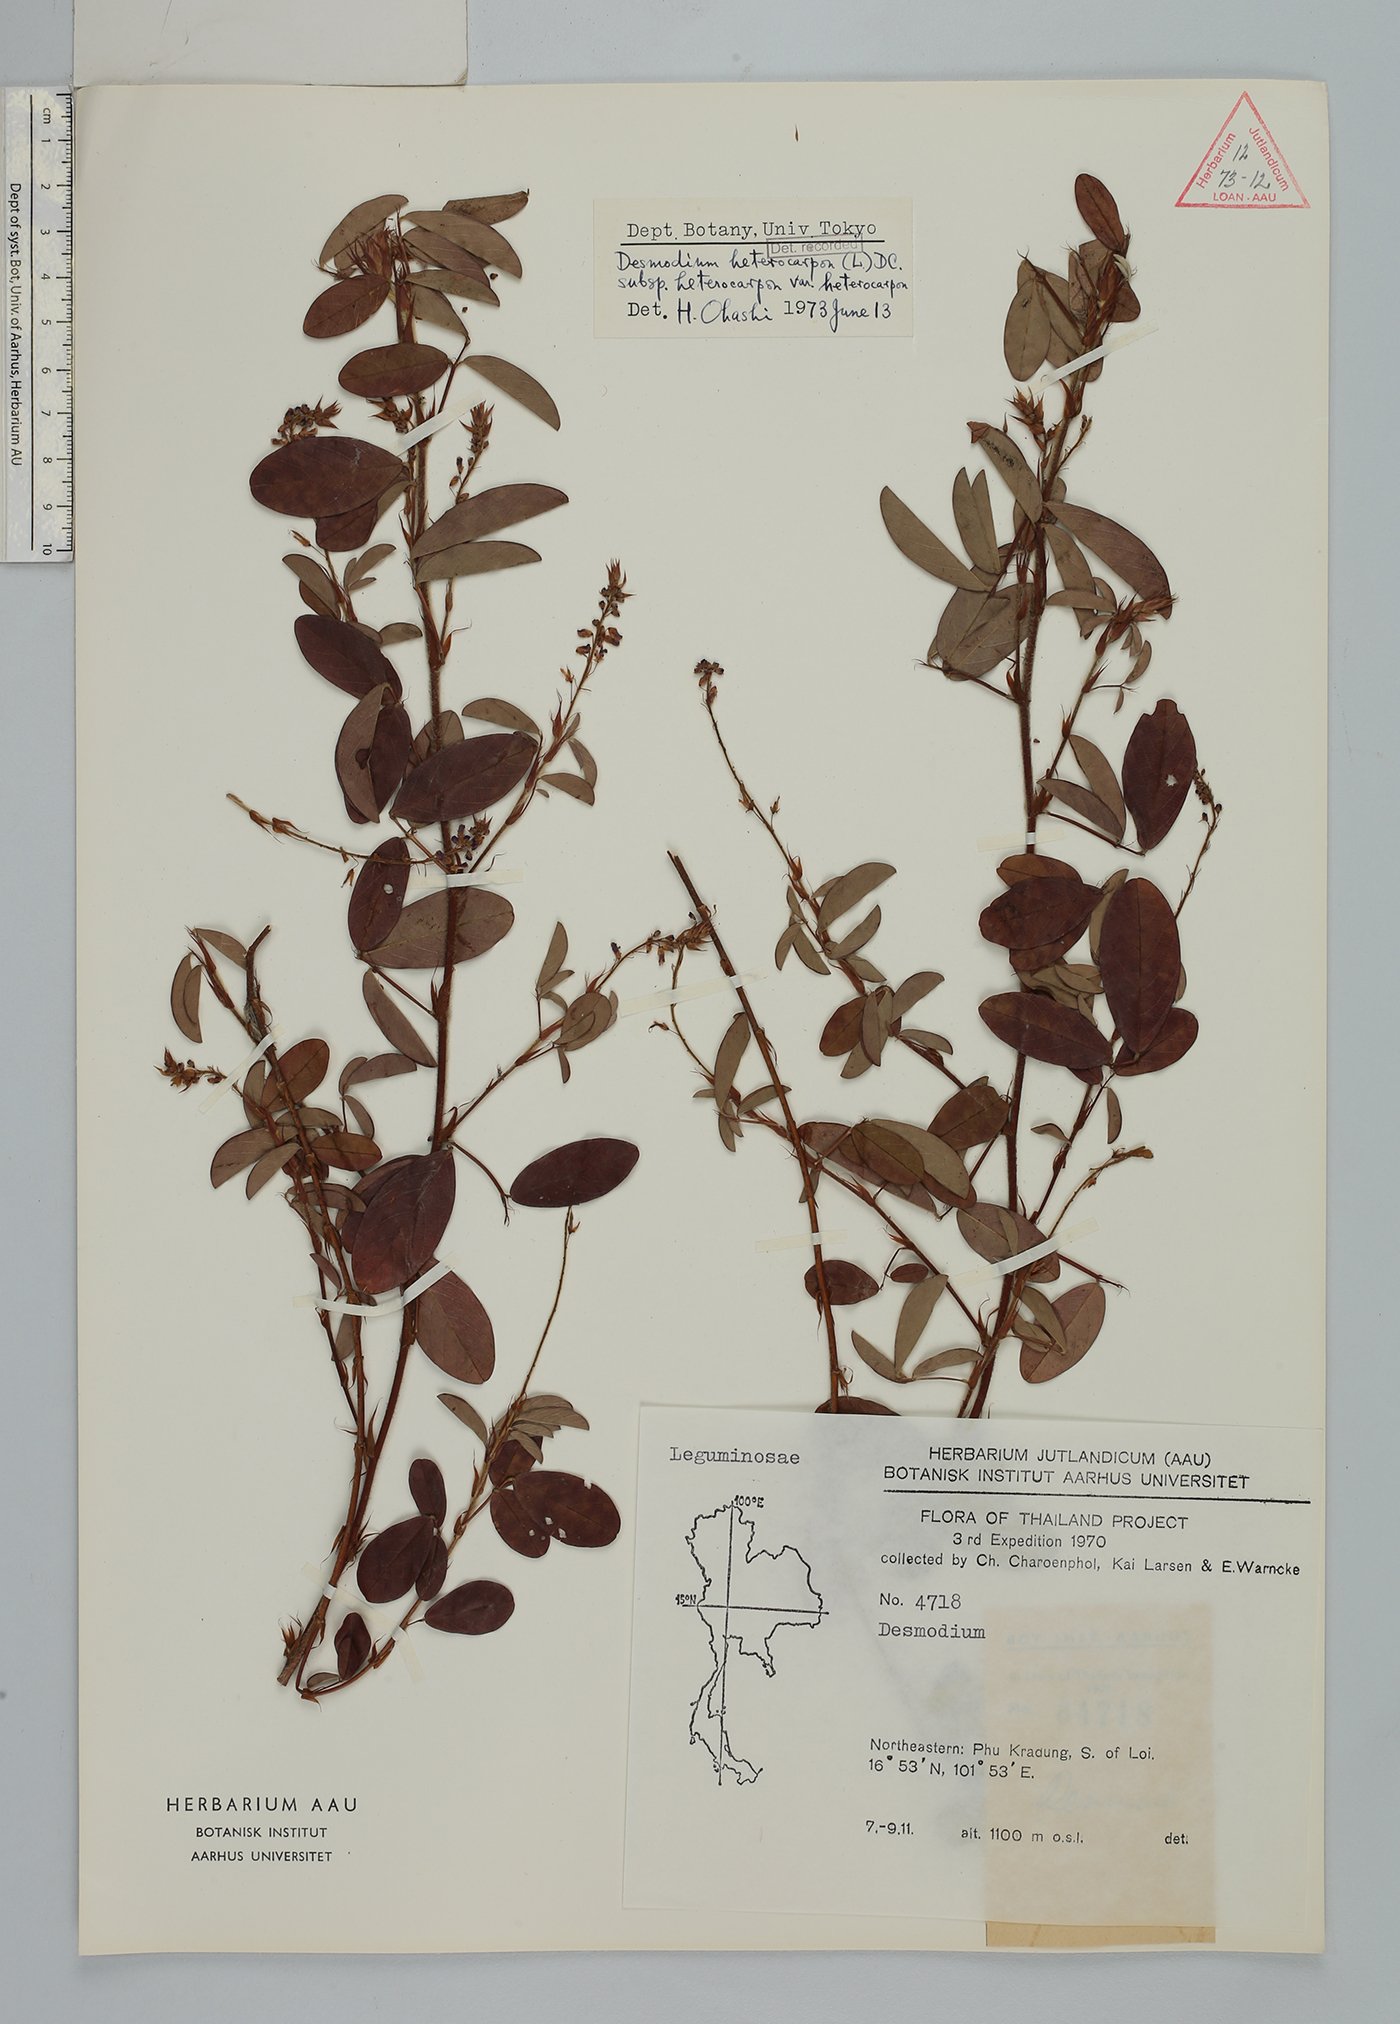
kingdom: Plantae
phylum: Tracheophyta
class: Magnoliopsida
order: Fabales
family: Fabaceae
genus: Grona
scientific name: Grona heterocarpos
